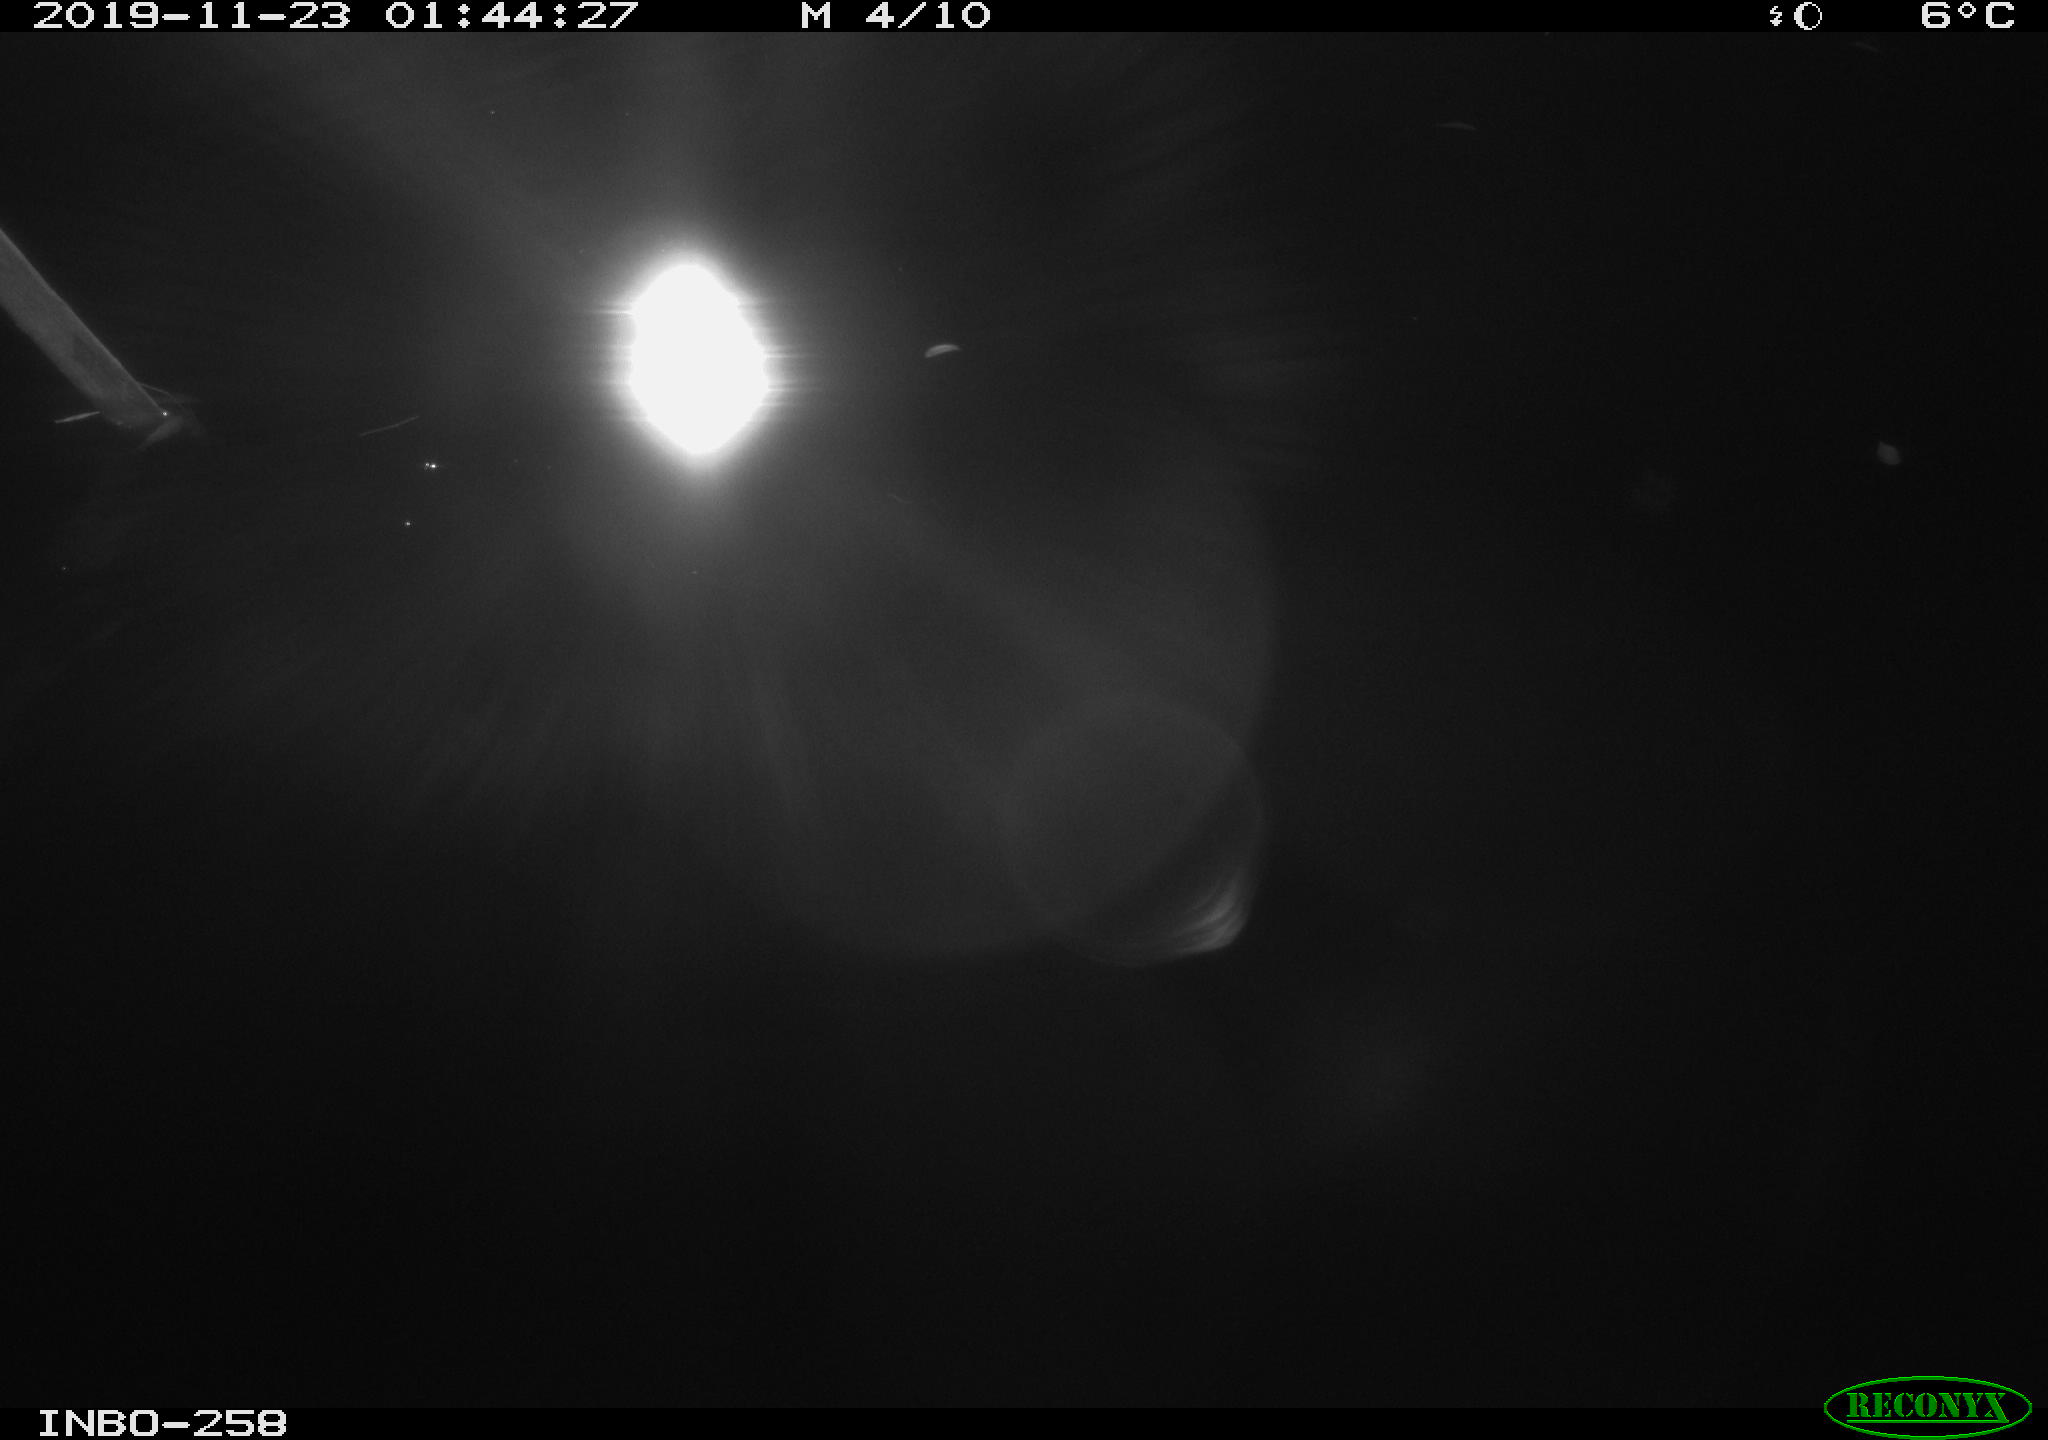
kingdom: Animalia
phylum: Chordata
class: Aves
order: Anseriformes
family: Anatidae
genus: Anas
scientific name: Anas platyrhynchos
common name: Mallard
